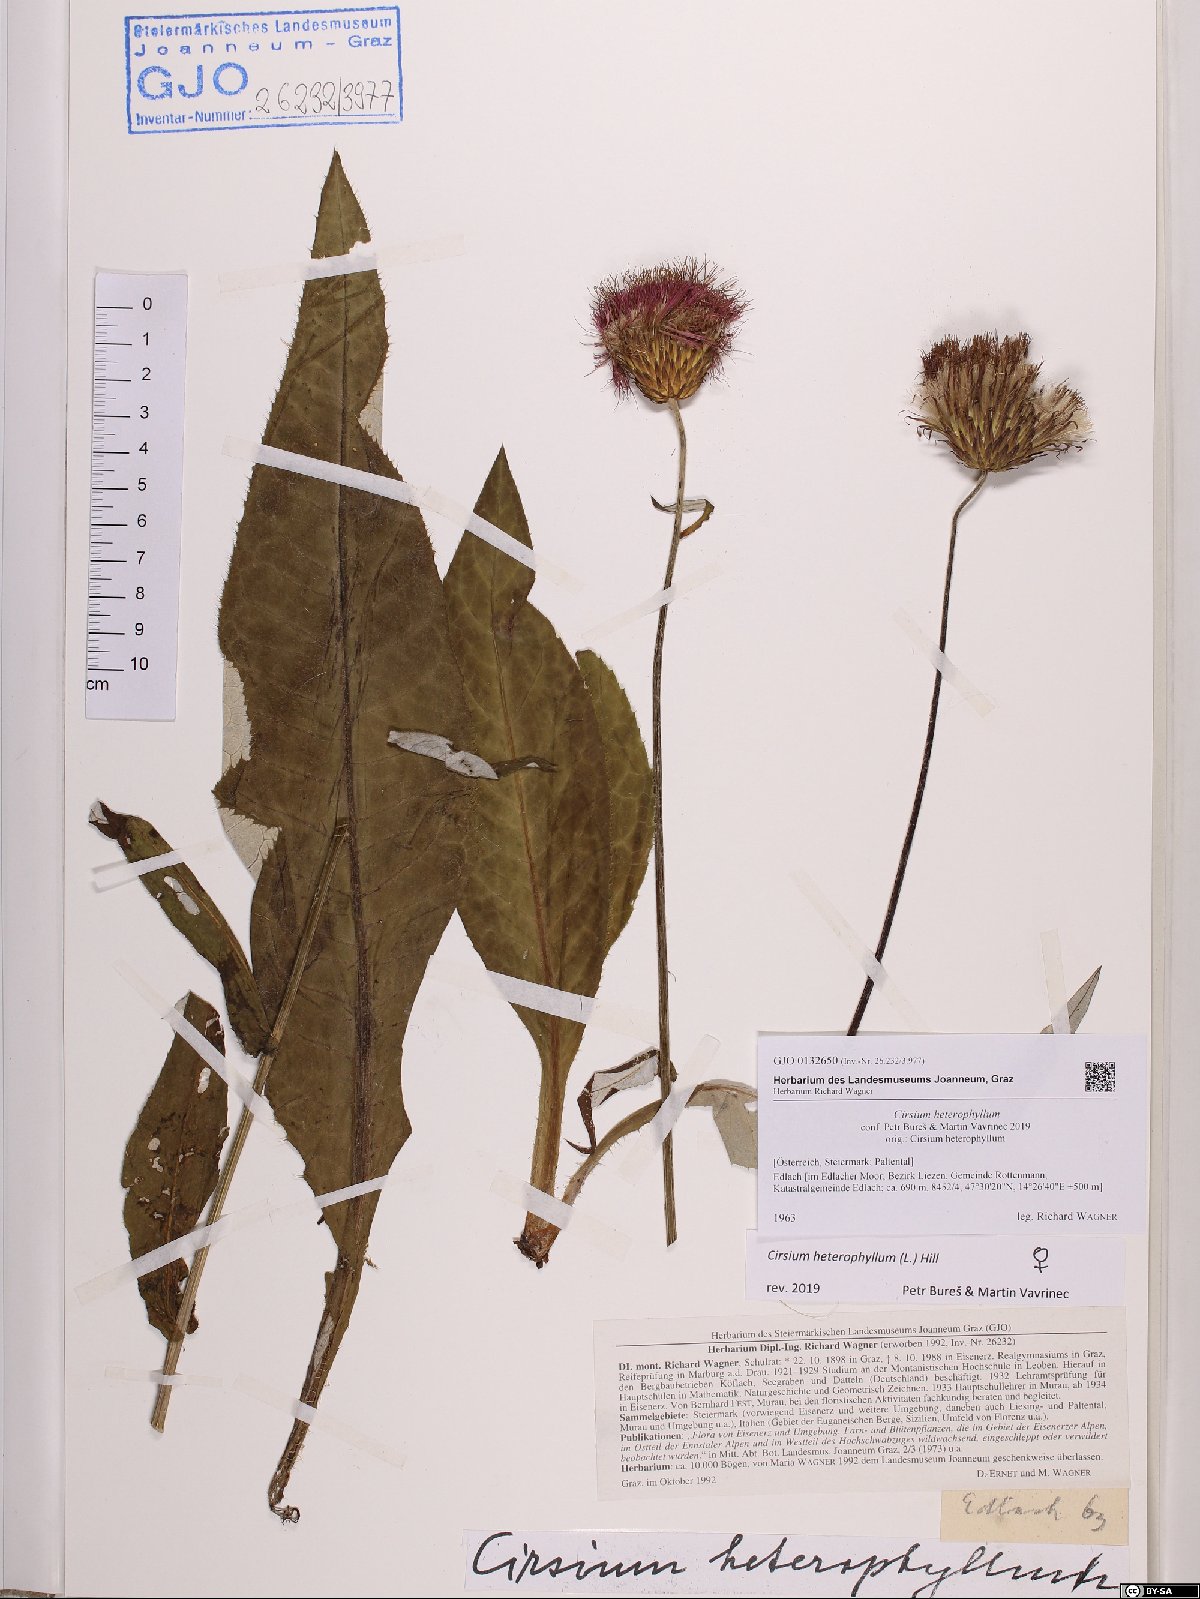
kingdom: Plantae
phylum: Tracheophyta
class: Magnoliopsida
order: Asterales
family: Asteraceae
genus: Cirsium
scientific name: Cirsium heterophyllum
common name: Melancholy thistle
